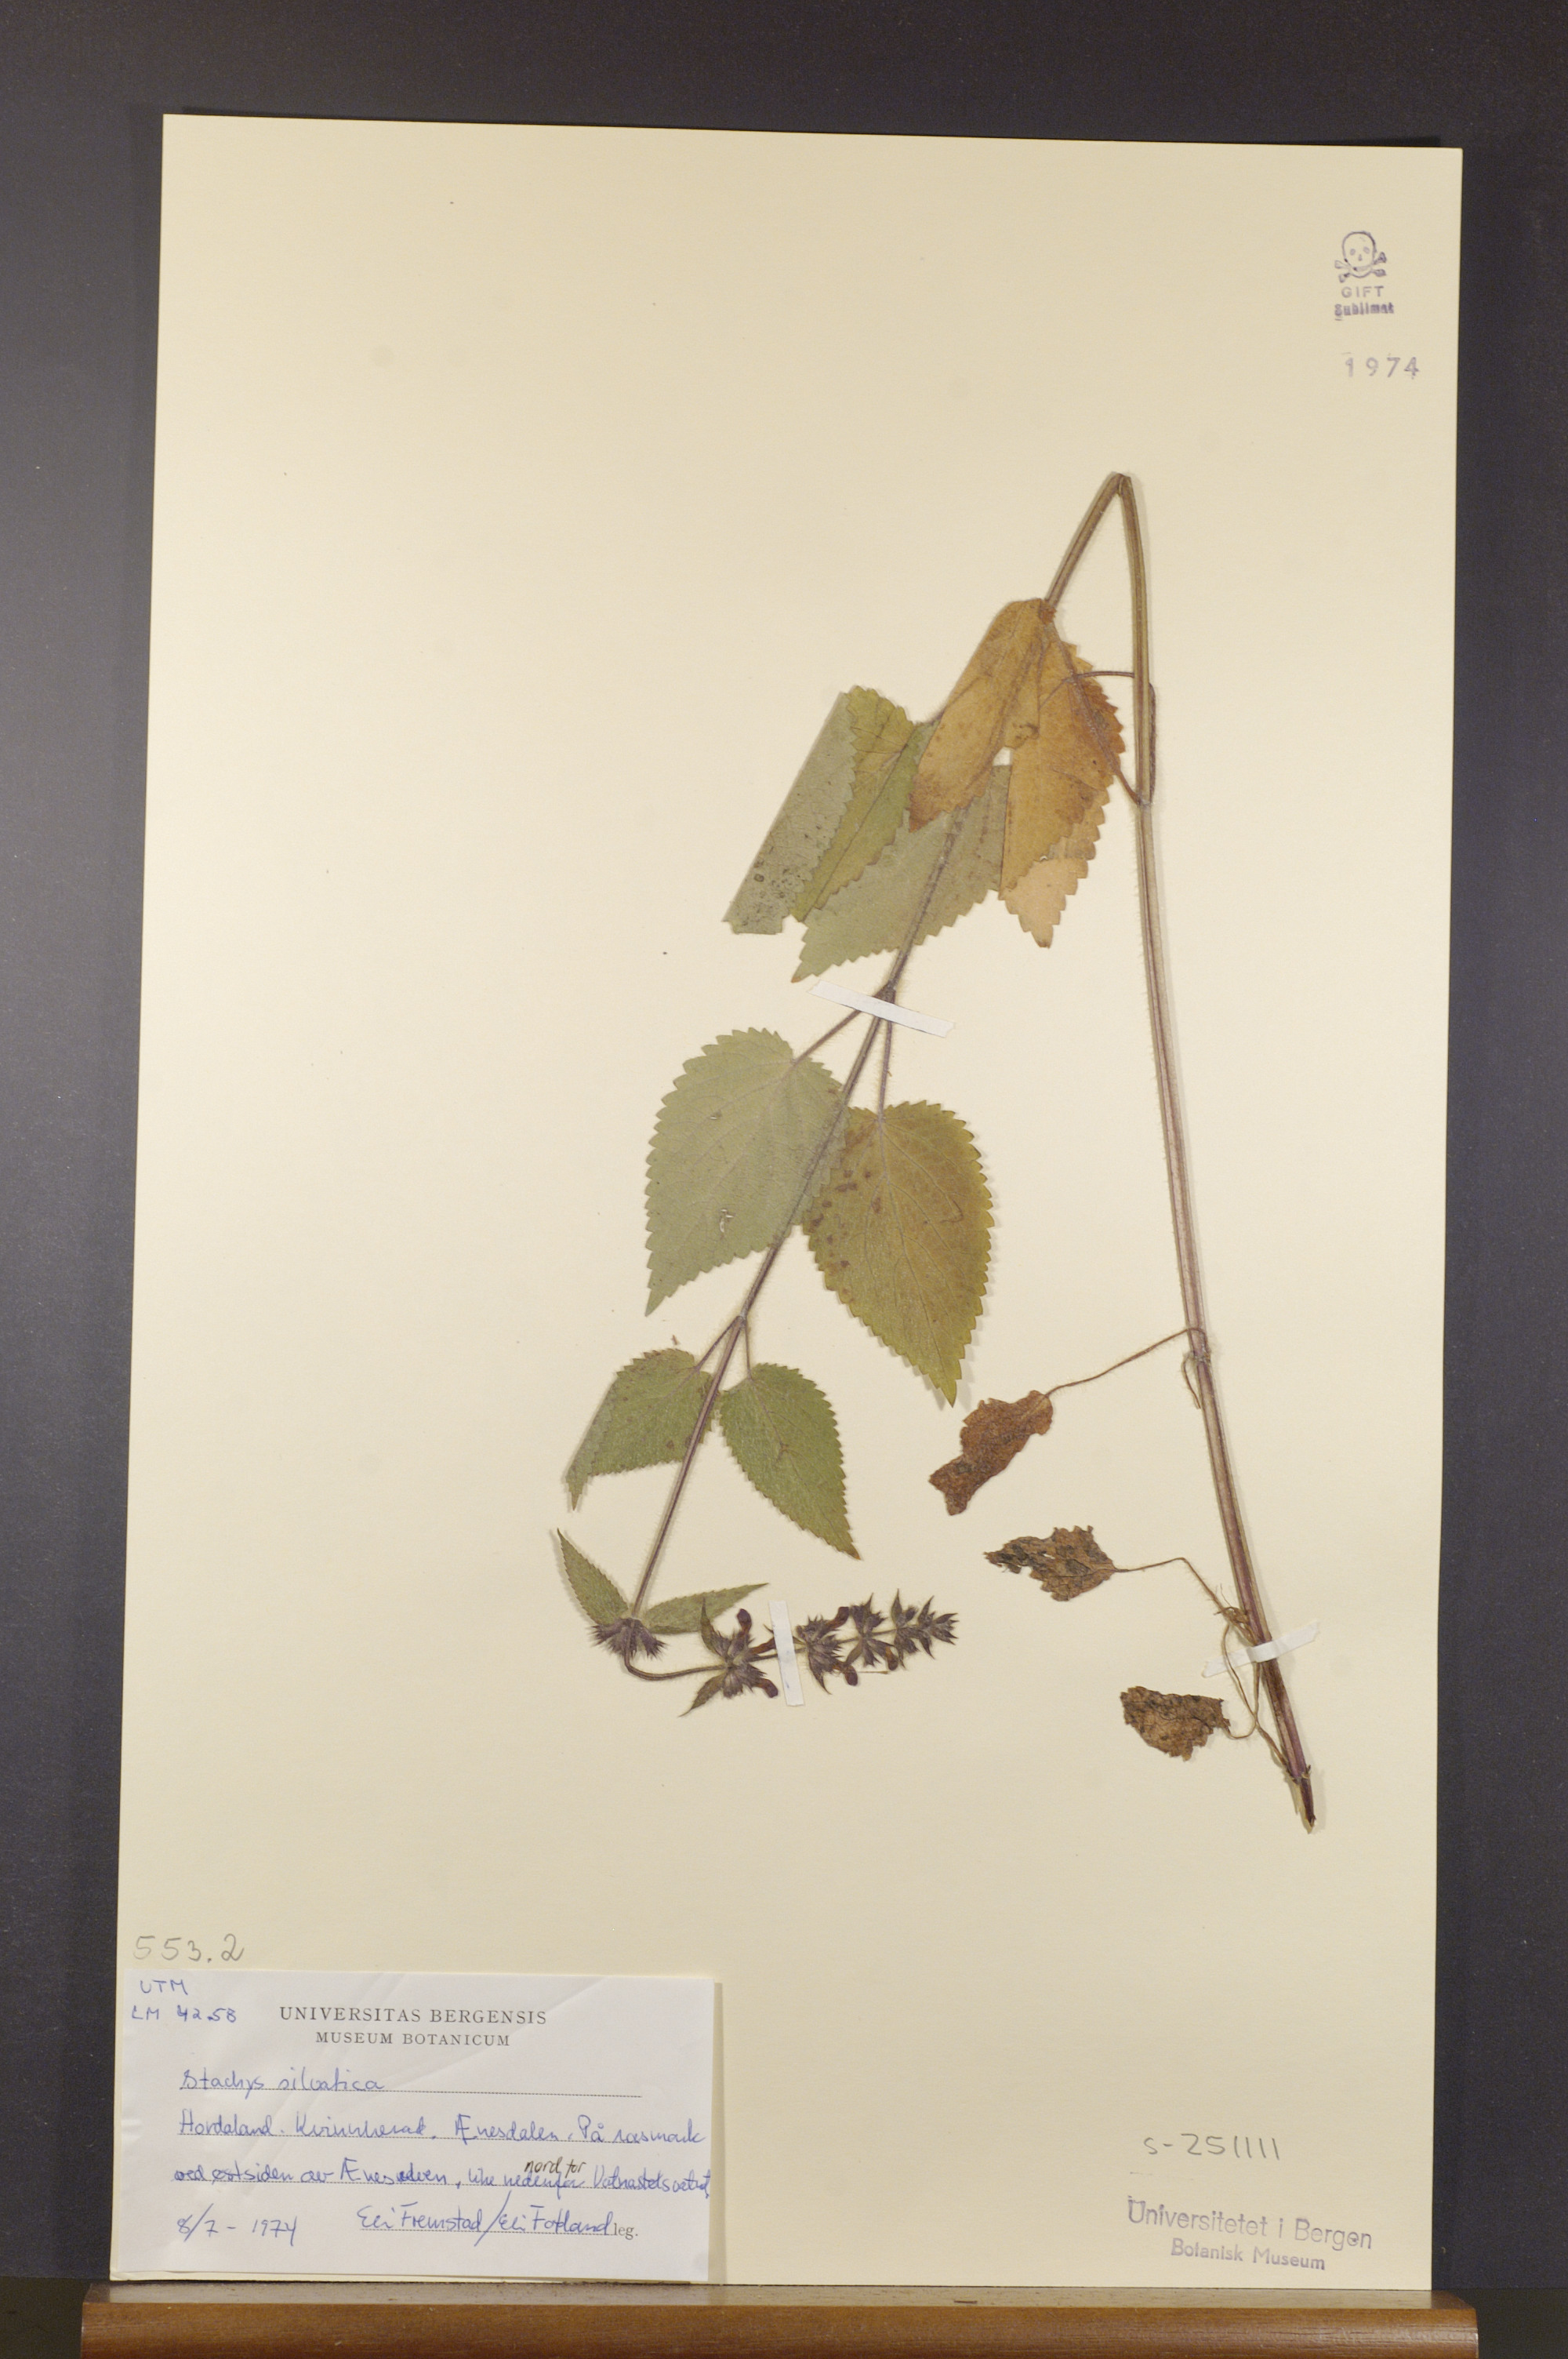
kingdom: Plantae
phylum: Tracheophyta
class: Magnoliopsida
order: Lamiales
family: Lamiaceae
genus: Stachys
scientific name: Stachys sylvatica
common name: Hedge woundwort
